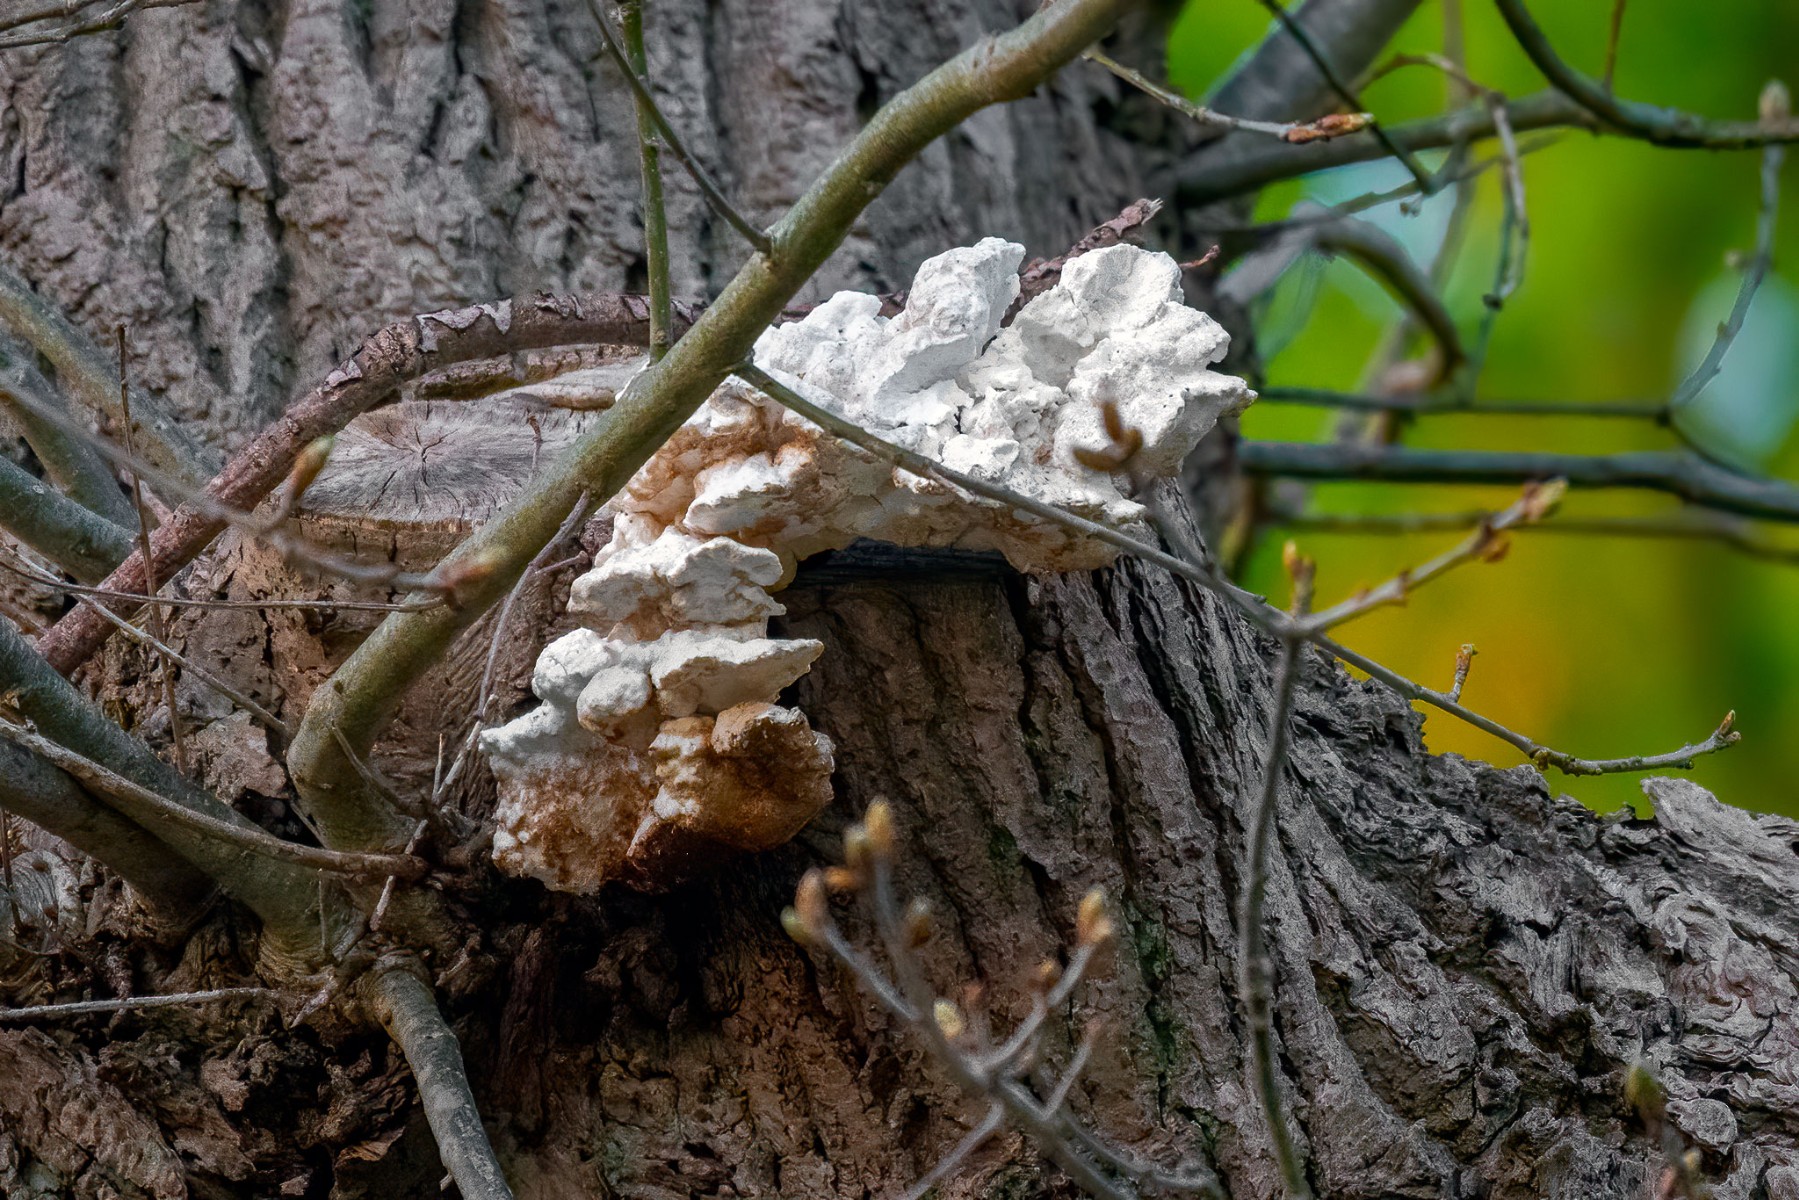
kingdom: Fungi
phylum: Basidiomycota
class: Agaricomycetes
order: Polyporales
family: Laetiporaceae
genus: Laetiporus
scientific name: Laetiporus sulphureus
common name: svovlporesvamp
